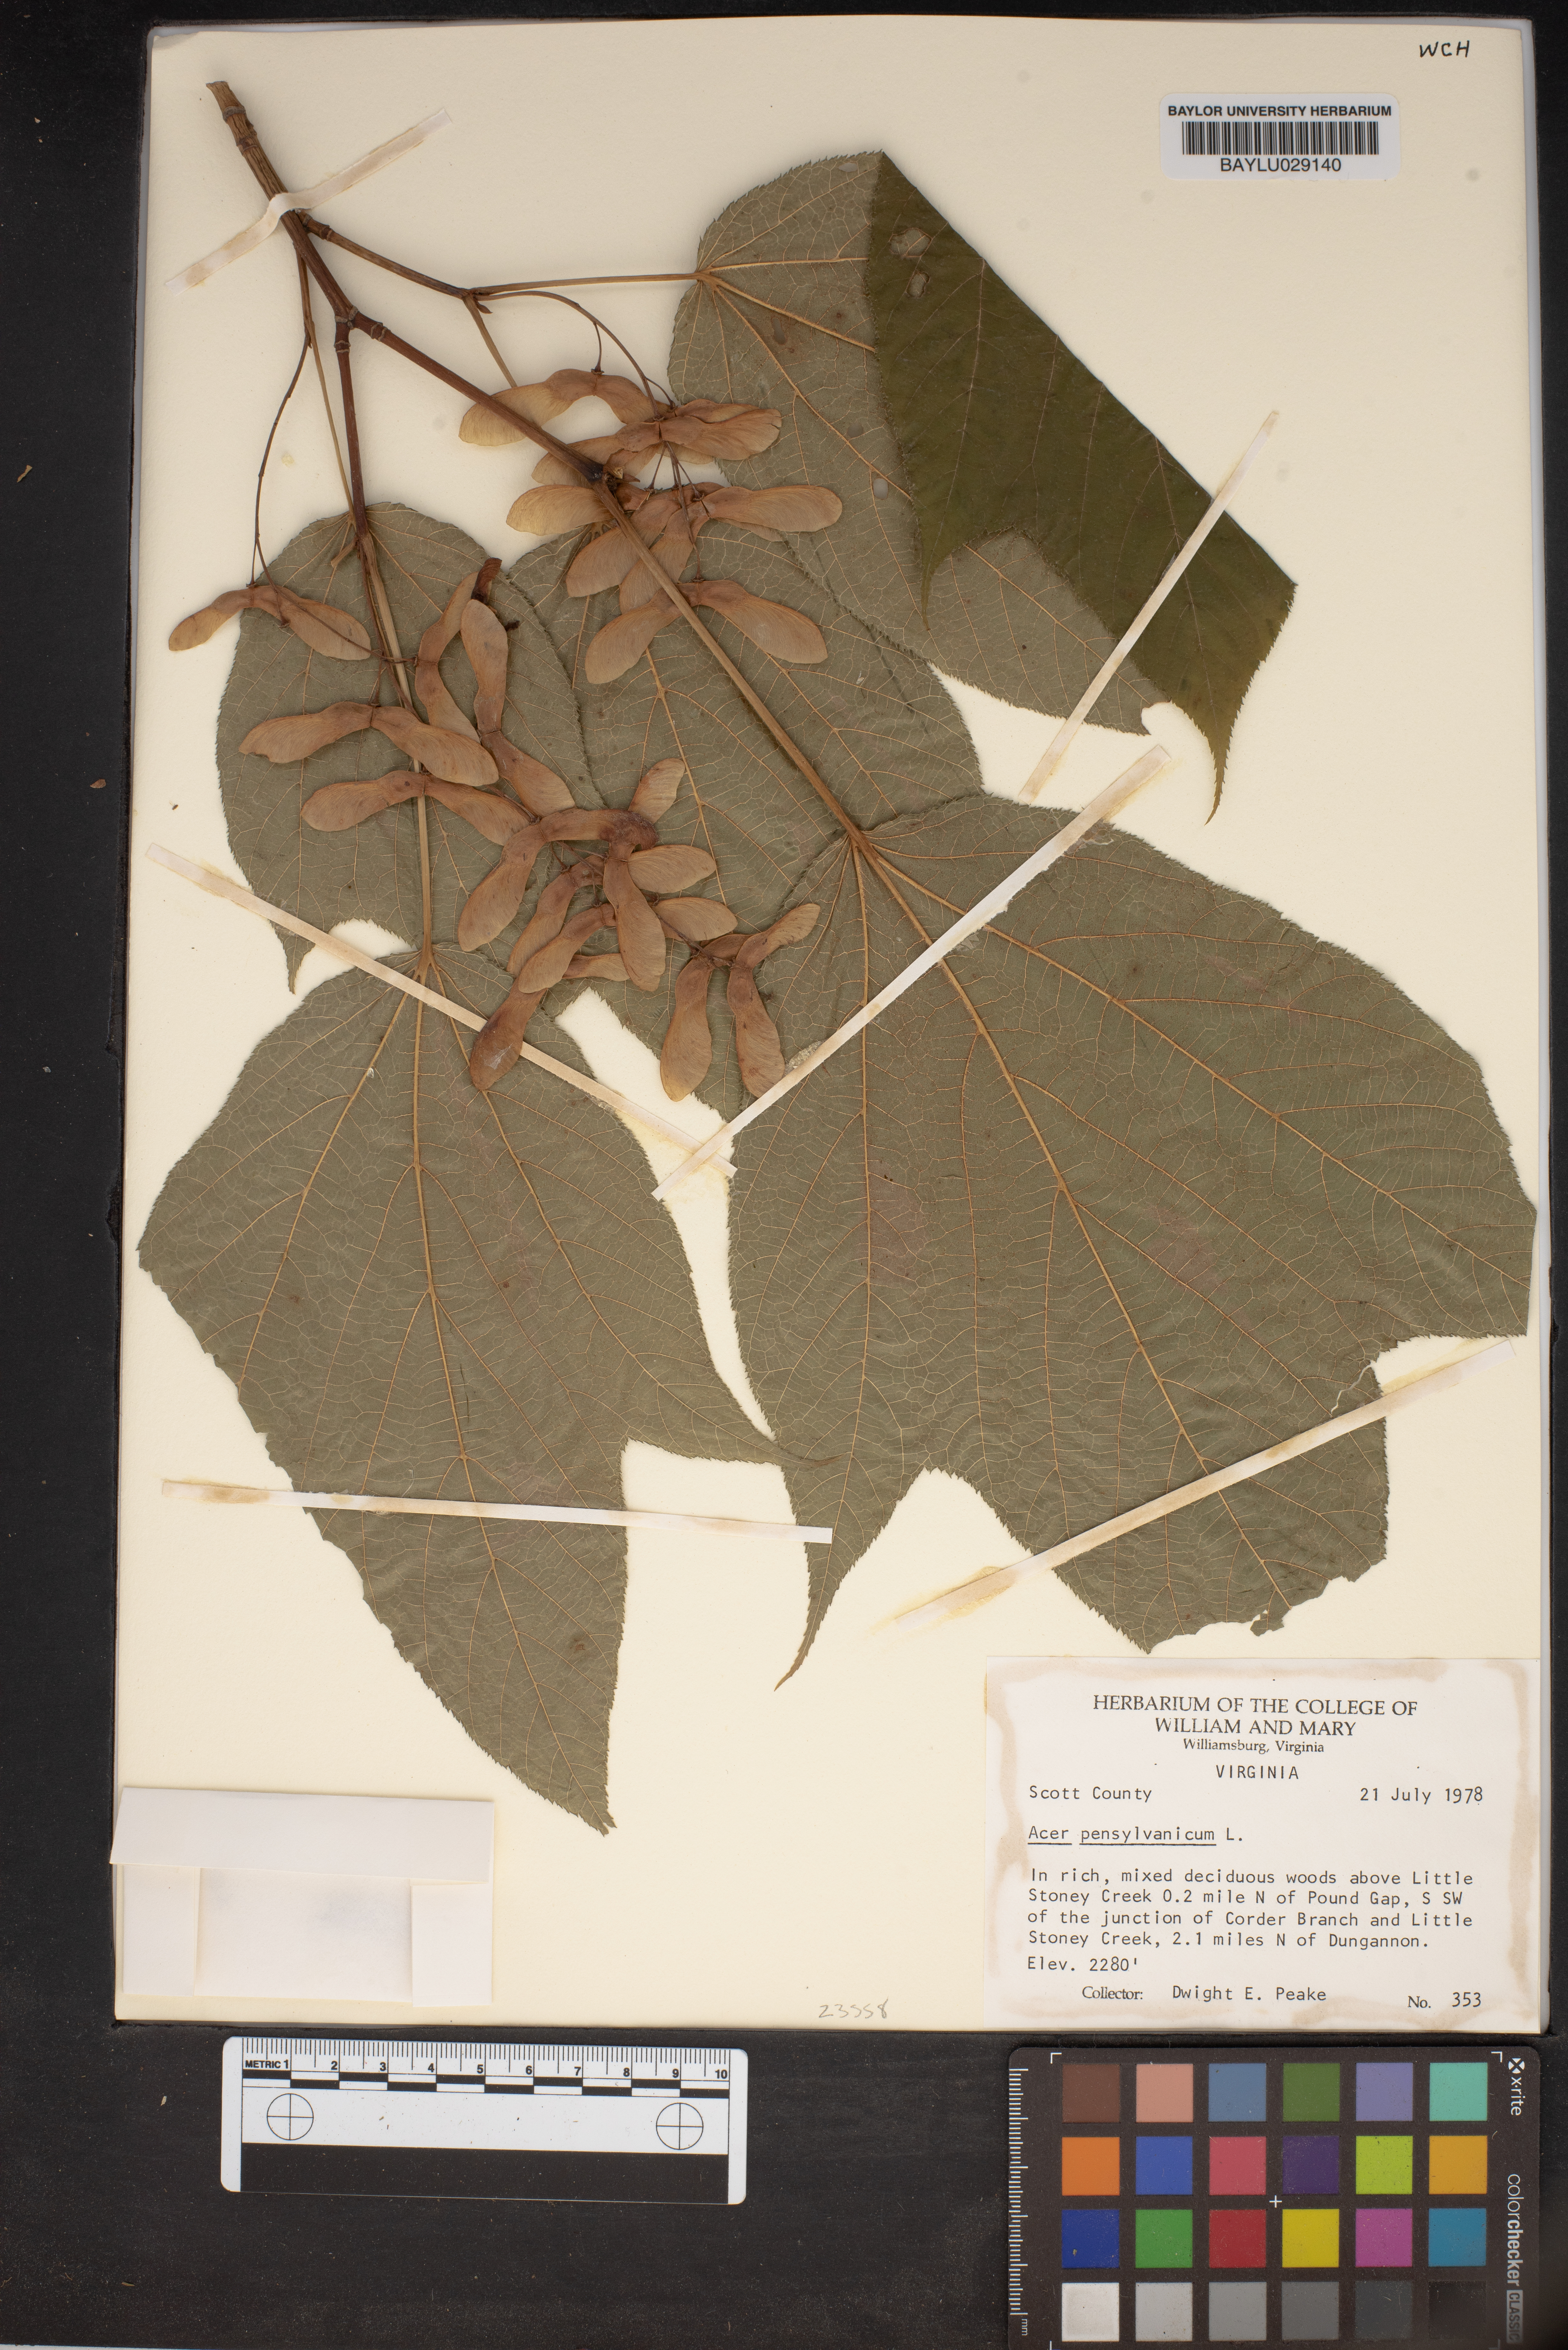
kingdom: Plantae
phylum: Tracheophyta
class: Magnoliopsida
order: Sapindales
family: Sapindaceae
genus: Acer
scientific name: Acer pensylvanicum
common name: Moosewood
